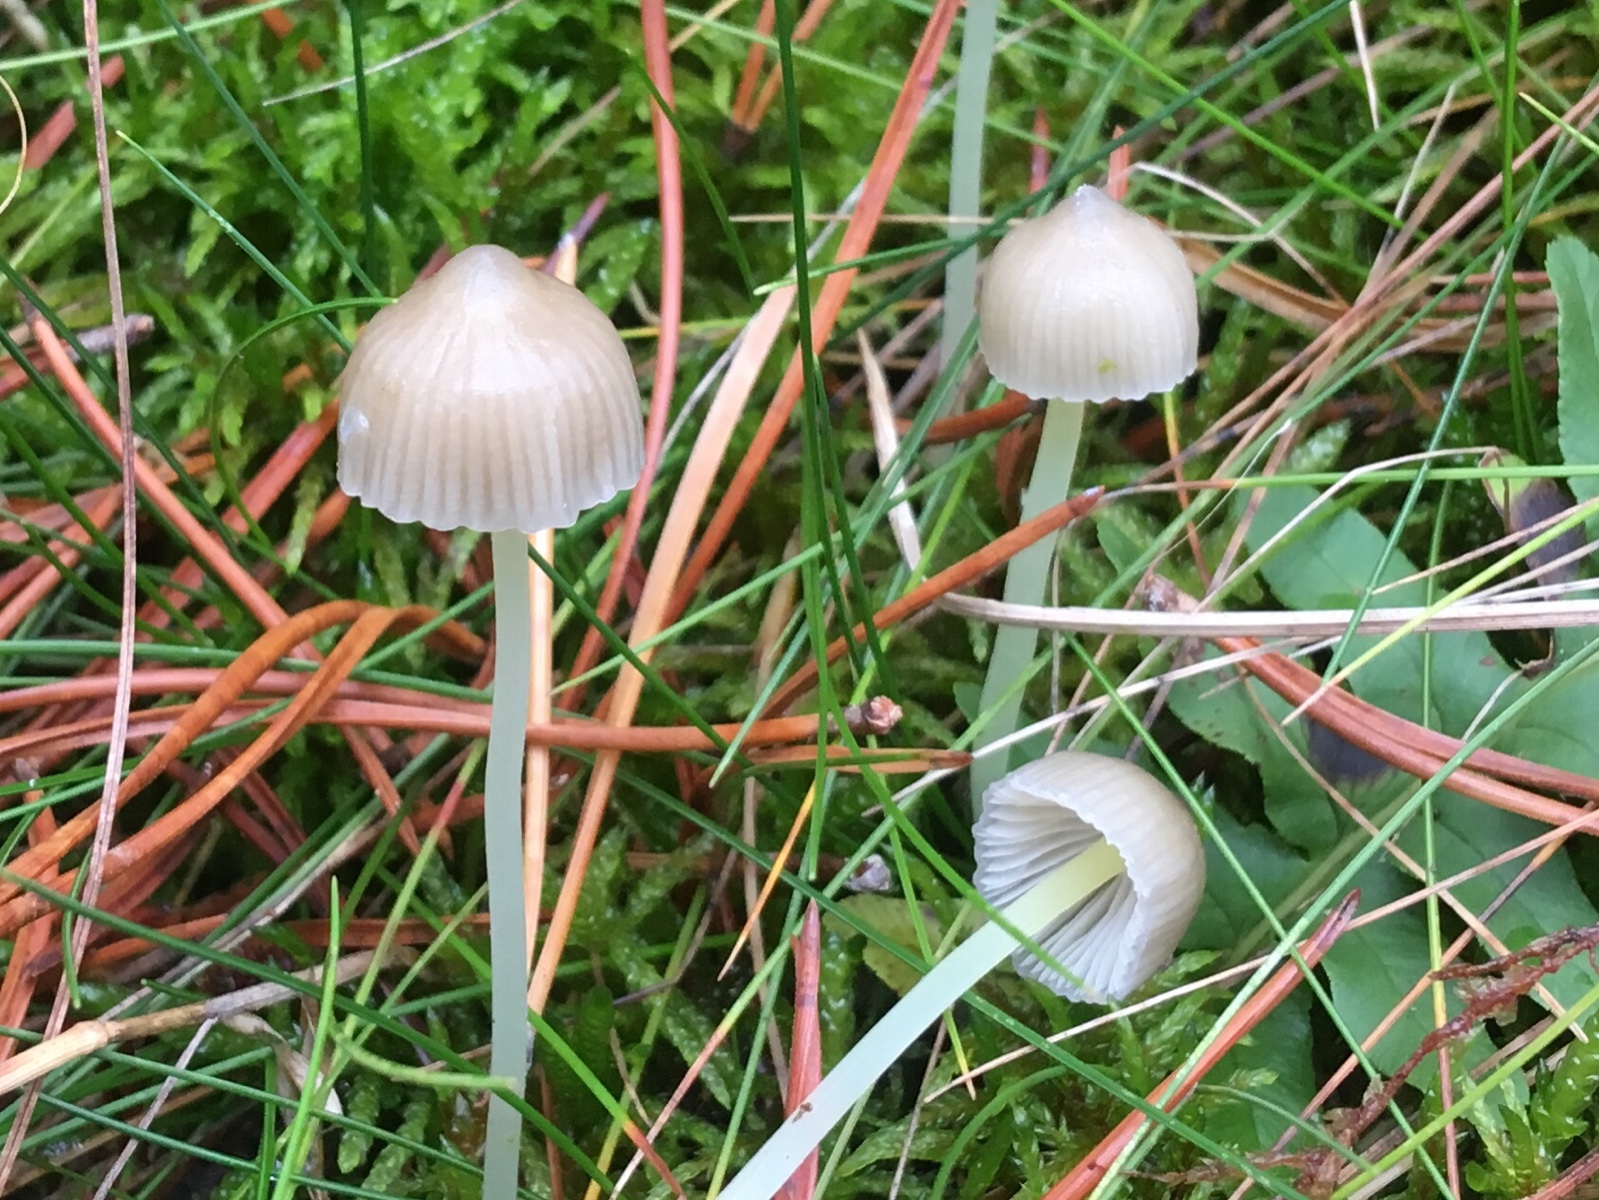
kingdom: Fungi
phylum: Basidiomycota
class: Agaricomycetes
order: Agaricales
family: Mycenaceae
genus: Mycena
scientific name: Mycena epipterygia
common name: gulstokket huesvamp
